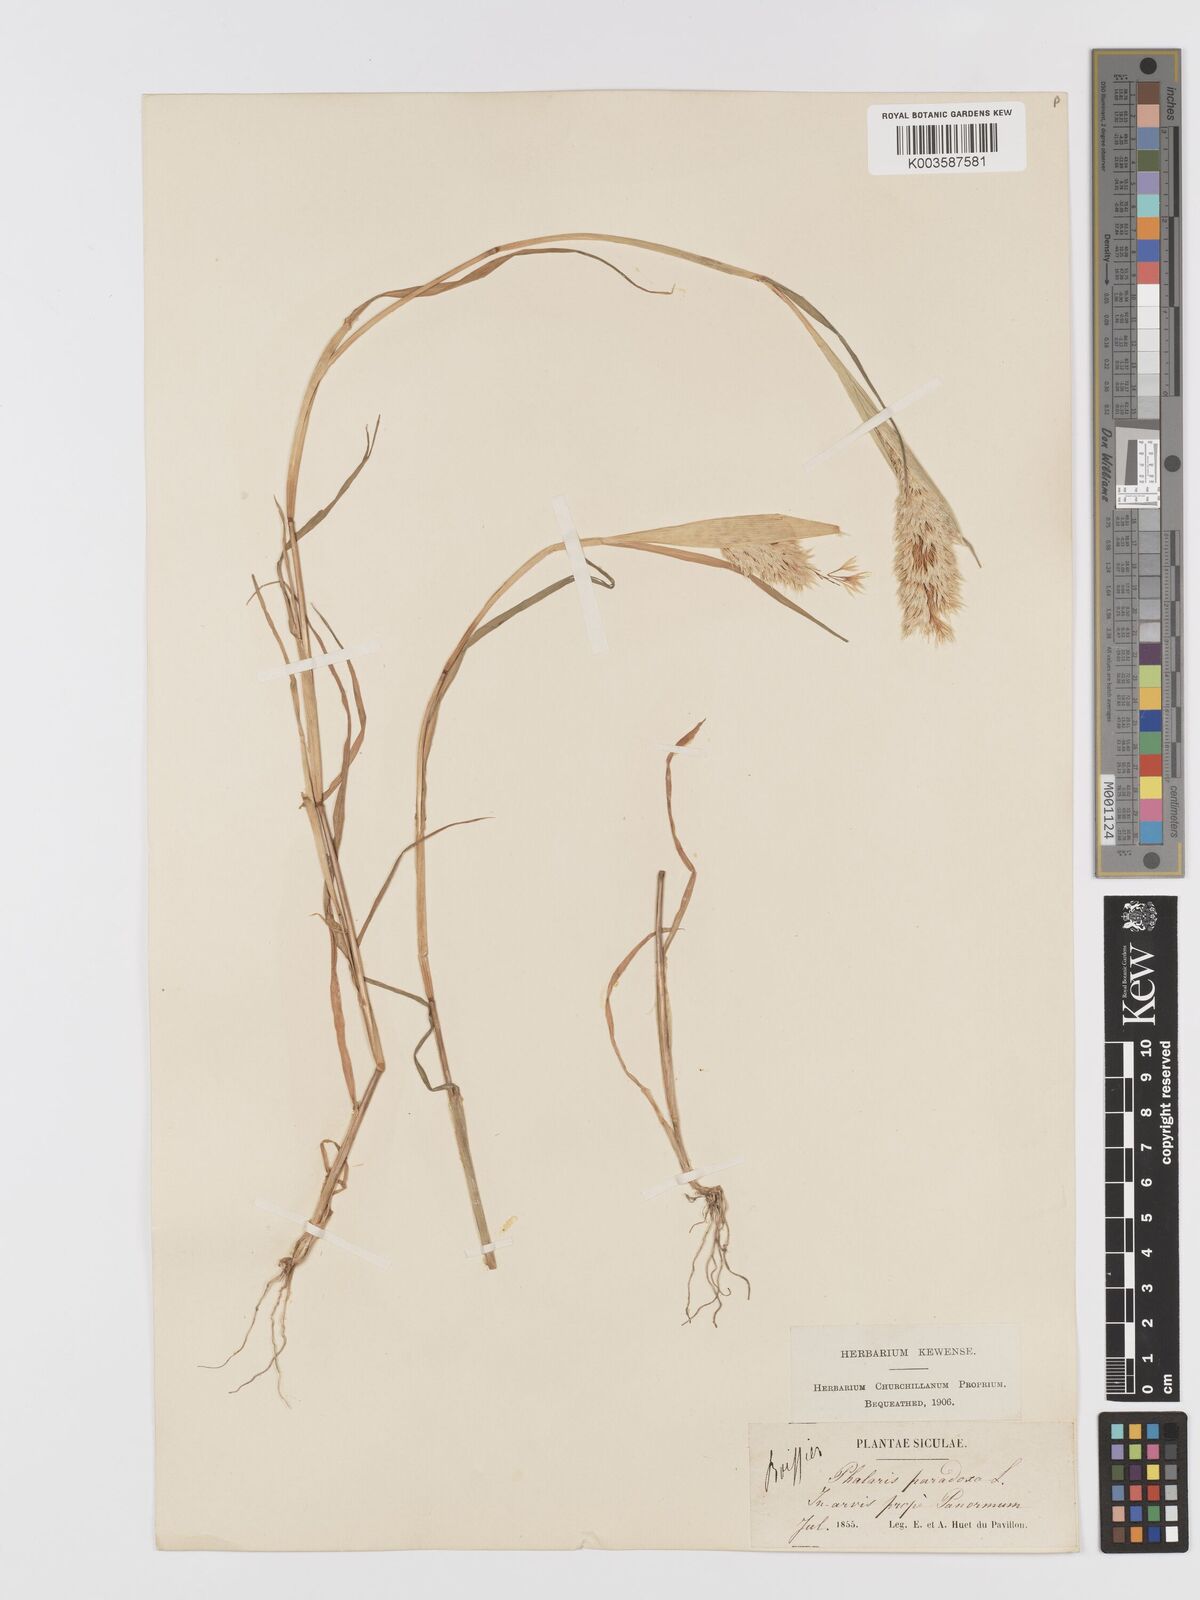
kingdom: Plantae
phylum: Tracheophyta
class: Liliopsida
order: Poales
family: Poaceae
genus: Phalaris
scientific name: Phalaris paradoxa
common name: Awned canary-grass
